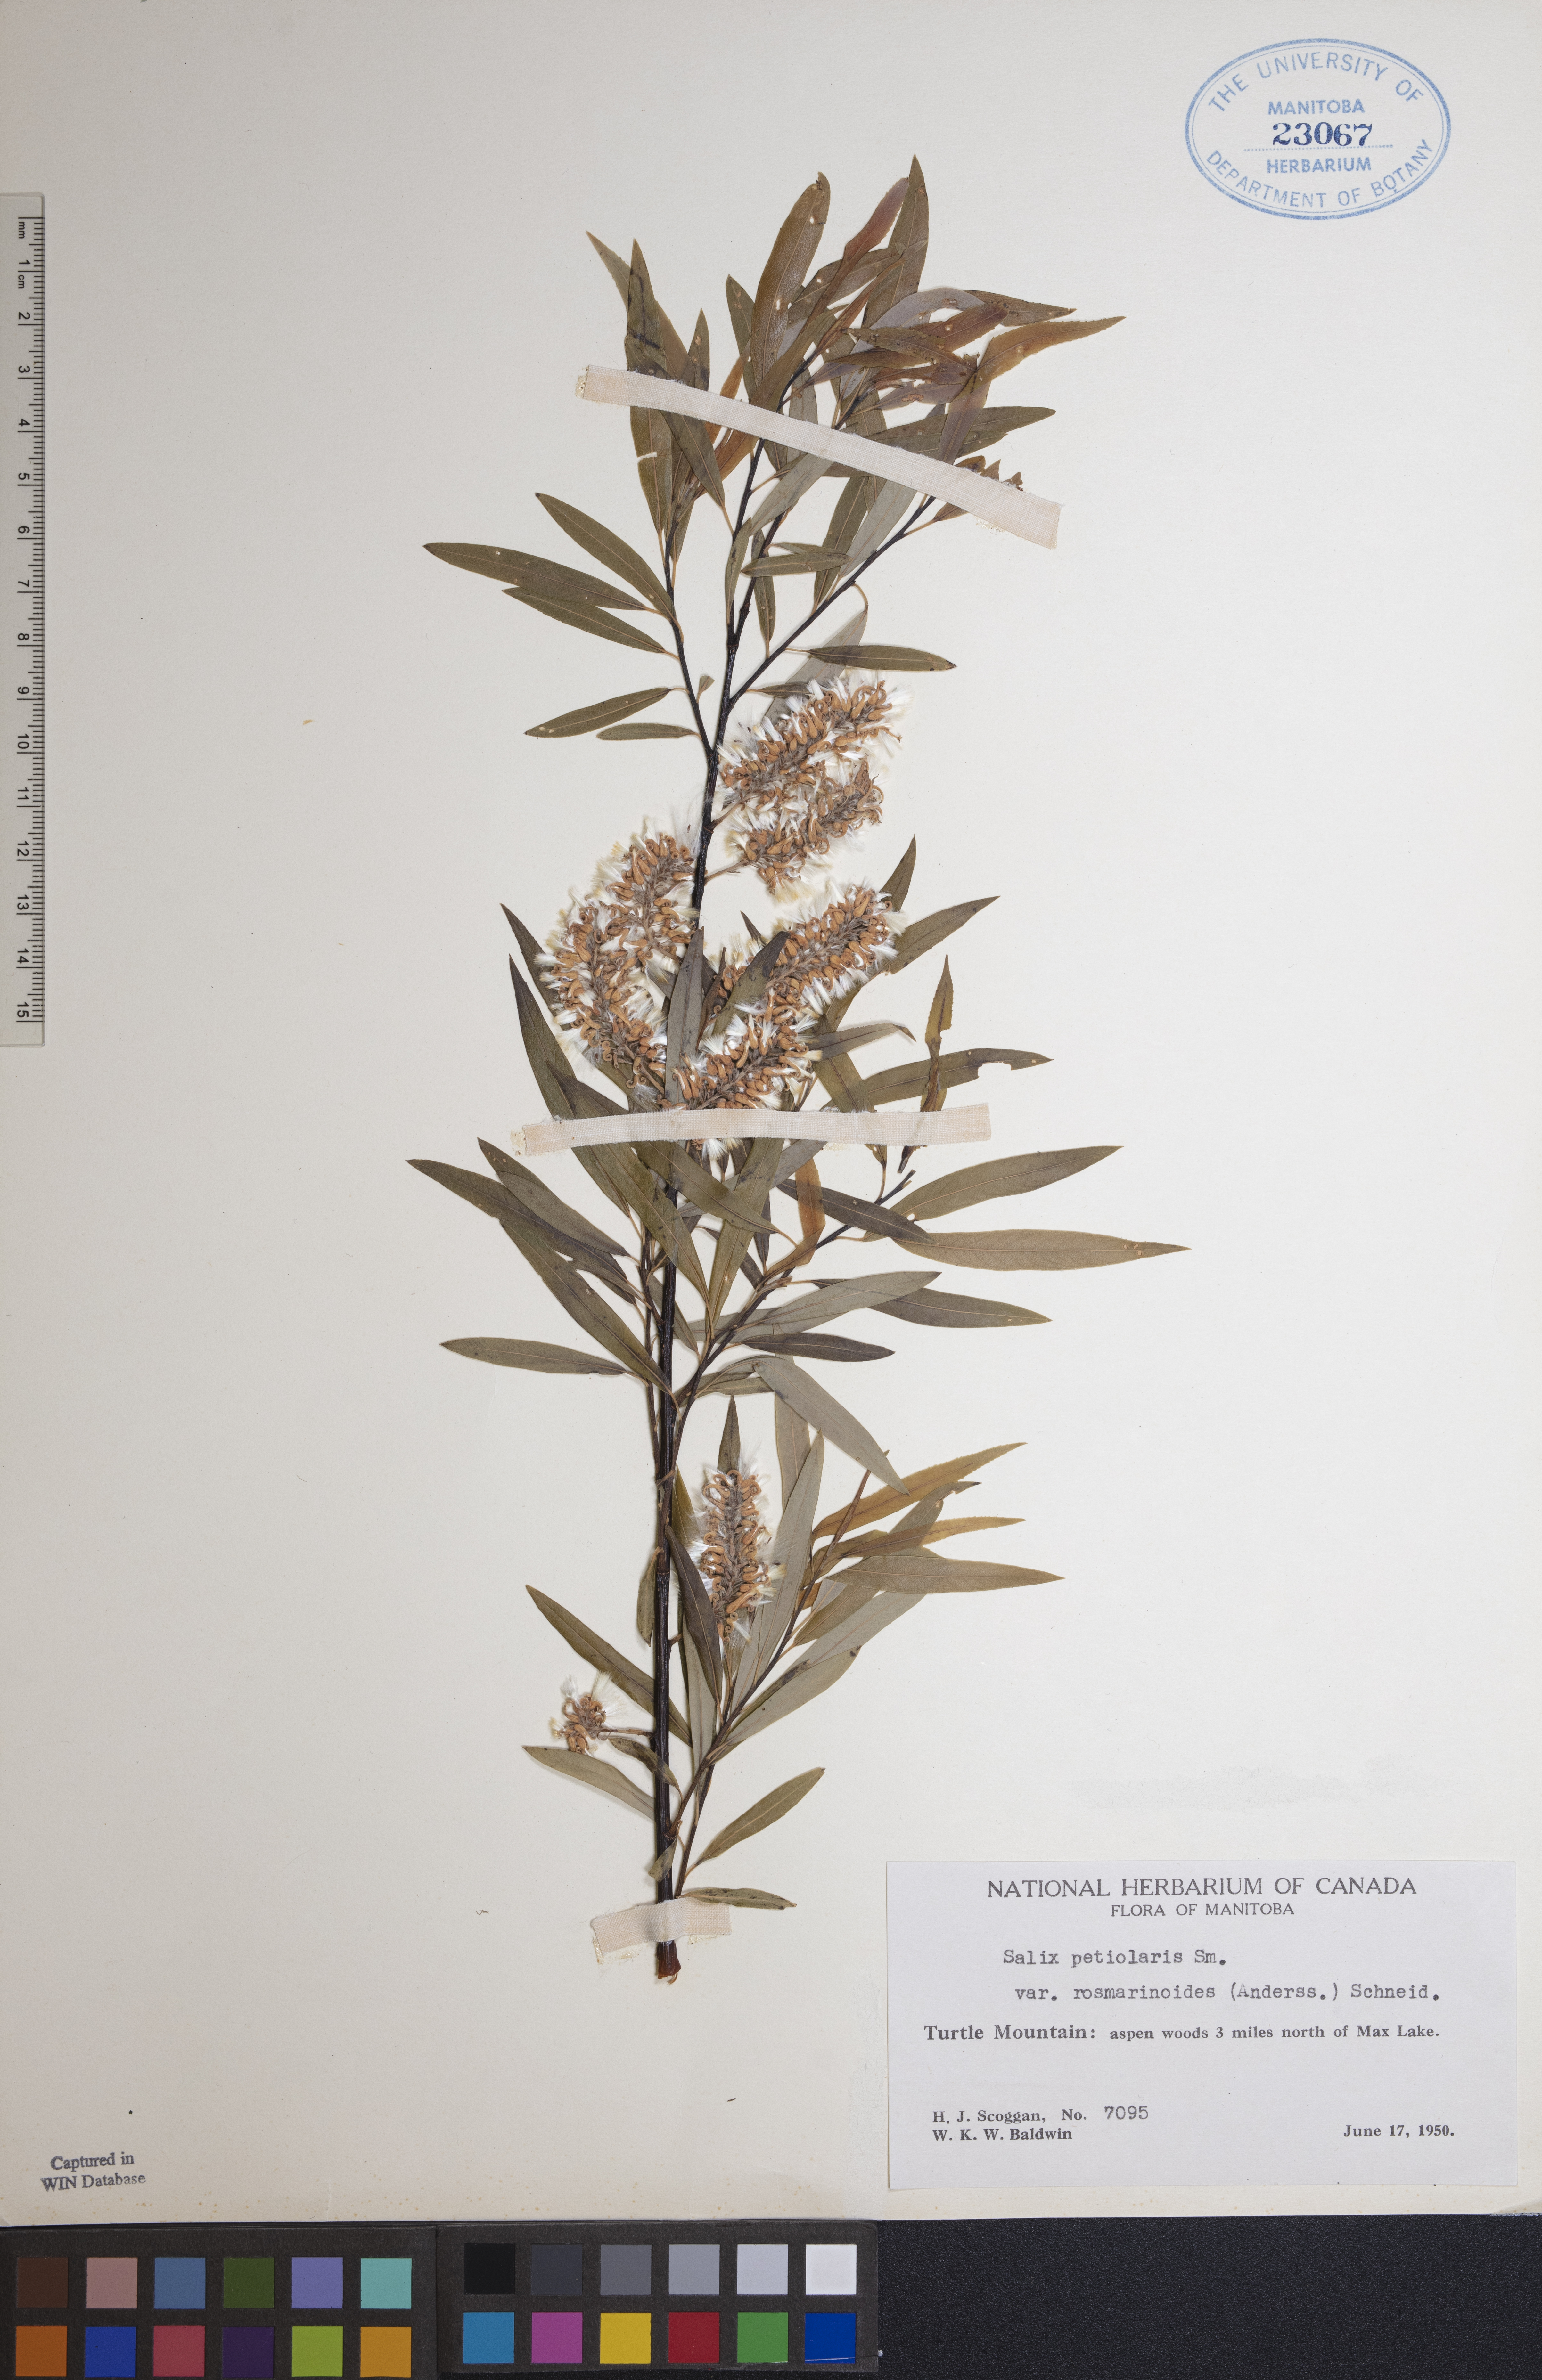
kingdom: Plantae
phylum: Tracheophyta
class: Magnoliopsida
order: Malpighiales
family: Salicaceae
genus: Salix
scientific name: Salix petiolaris
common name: Slender willow
